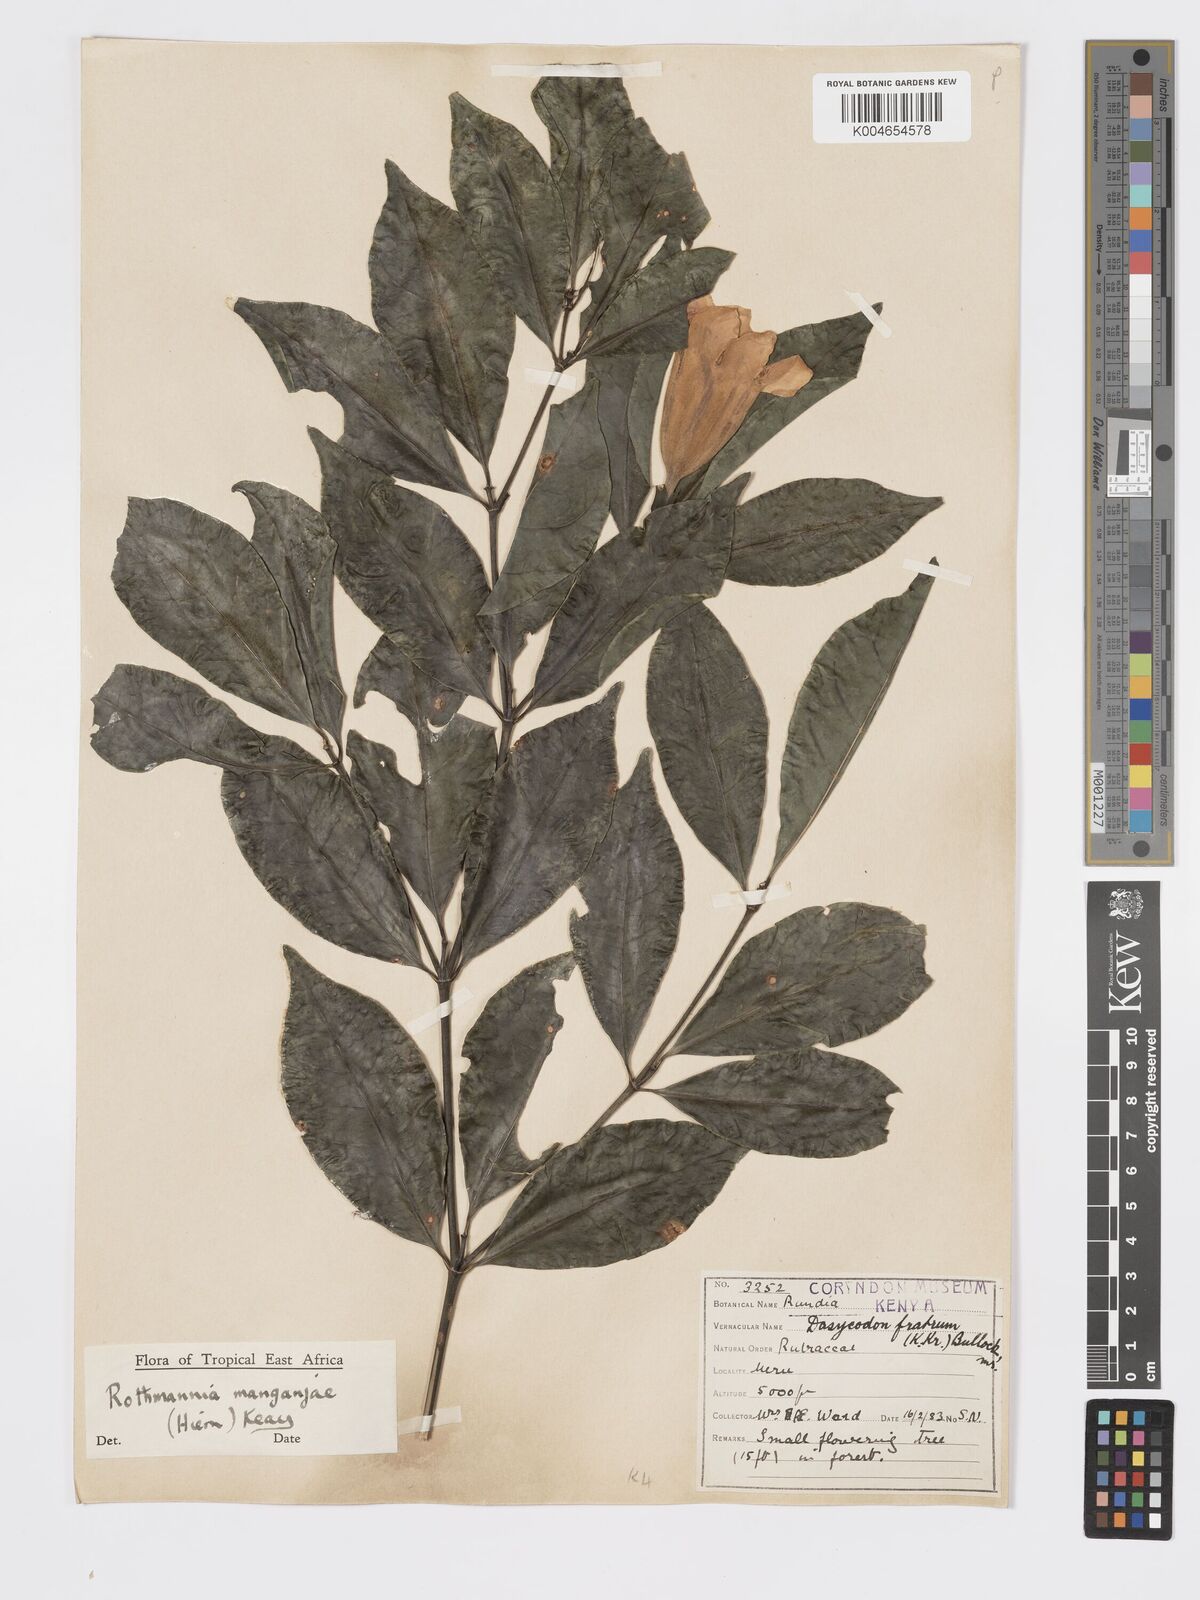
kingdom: Plantae
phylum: Tracheophyta
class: Magnoliopsida
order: Gentianales
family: Rubiaceae
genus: Rothmannia
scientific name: Rothmannia manganjae
